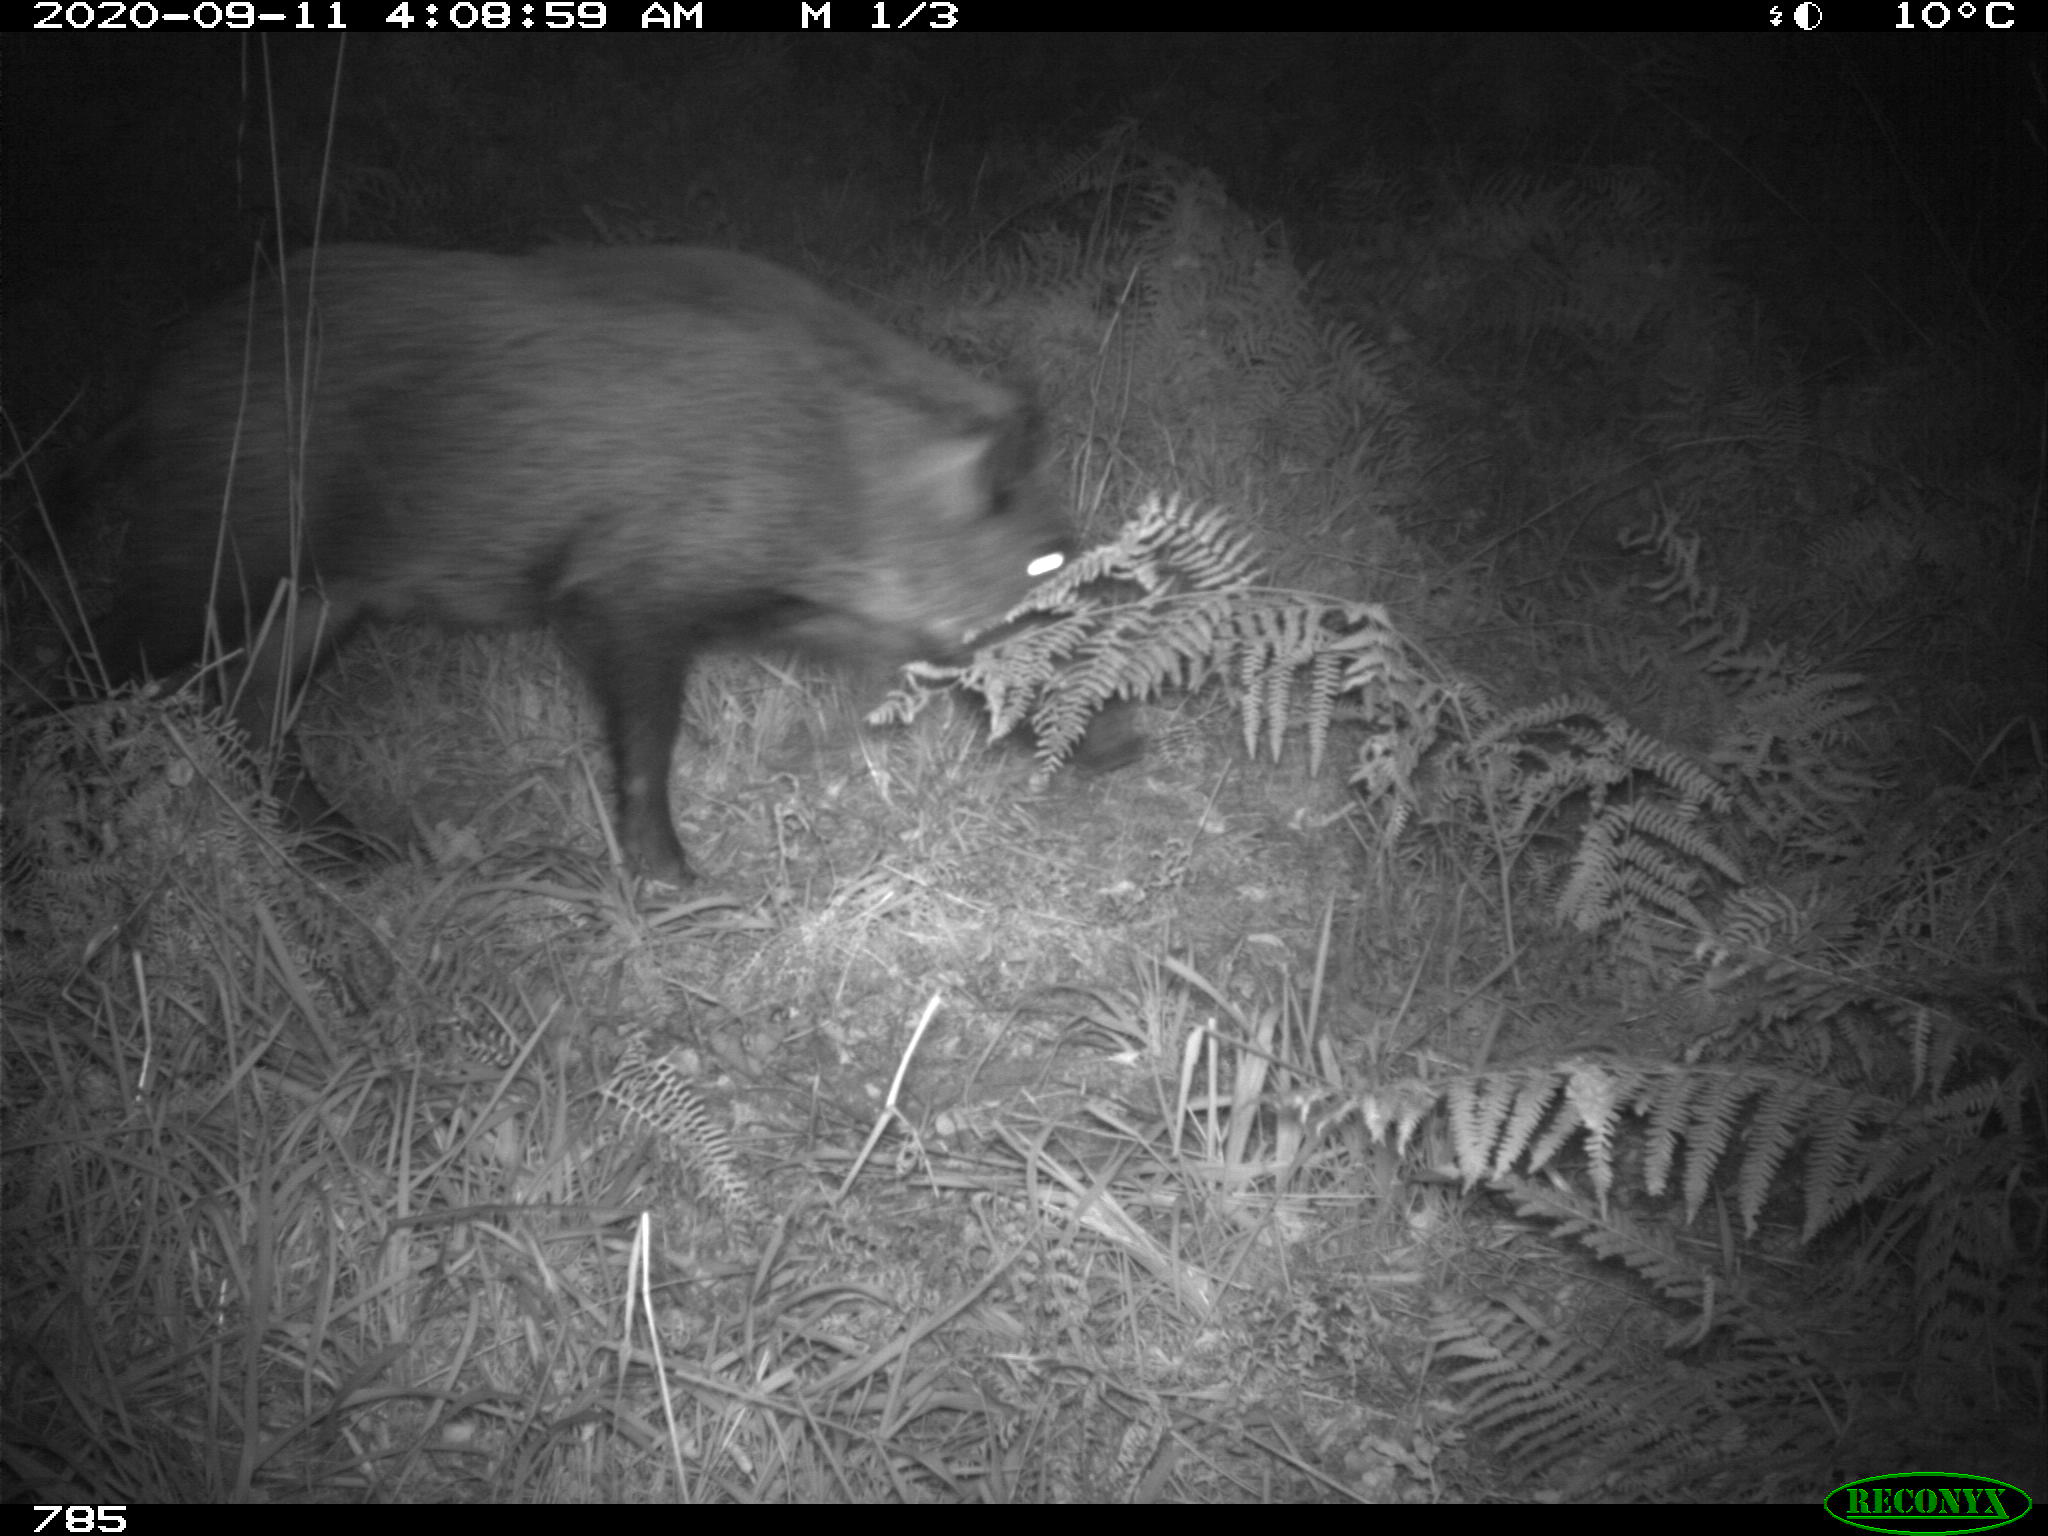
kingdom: Animalia
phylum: Chordata
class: Mammalia
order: Artiodactyla
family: Suidae
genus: Sus
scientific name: Sus scrofa
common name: Wild boar
